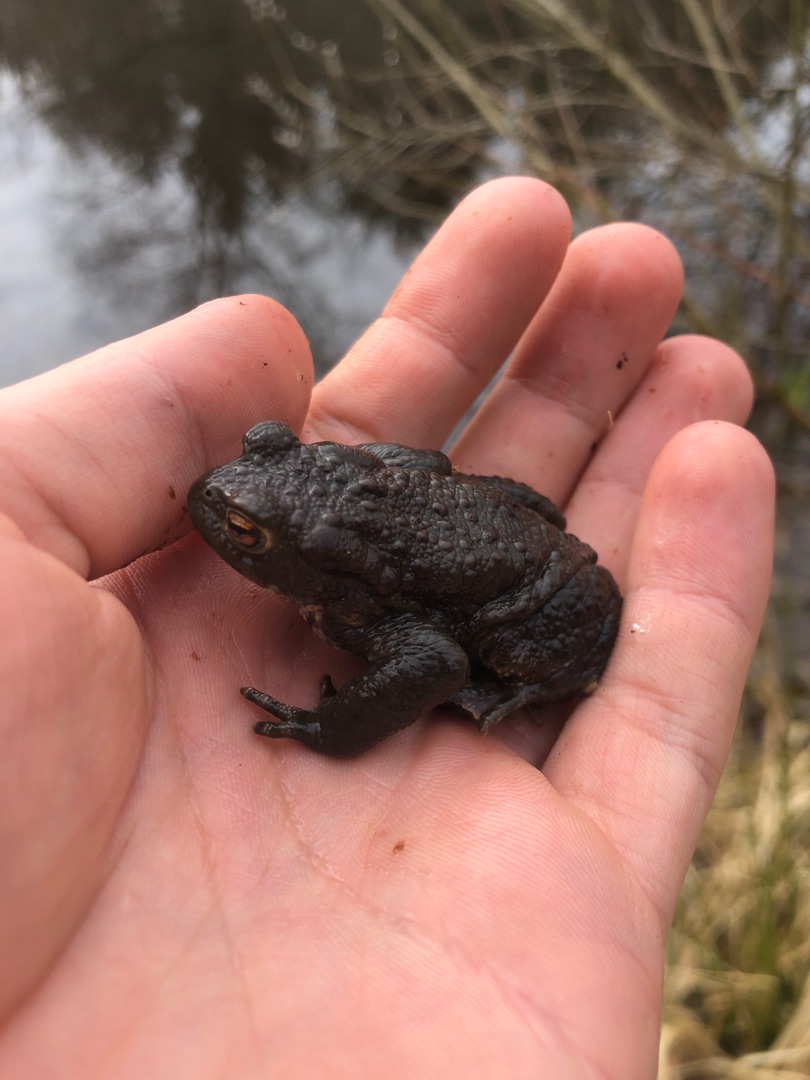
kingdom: Animalia
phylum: Chordata
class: Amphibia
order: Anura
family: Bufonidae
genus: Bufo
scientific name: Bufo bufo
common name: Skrubtudse
